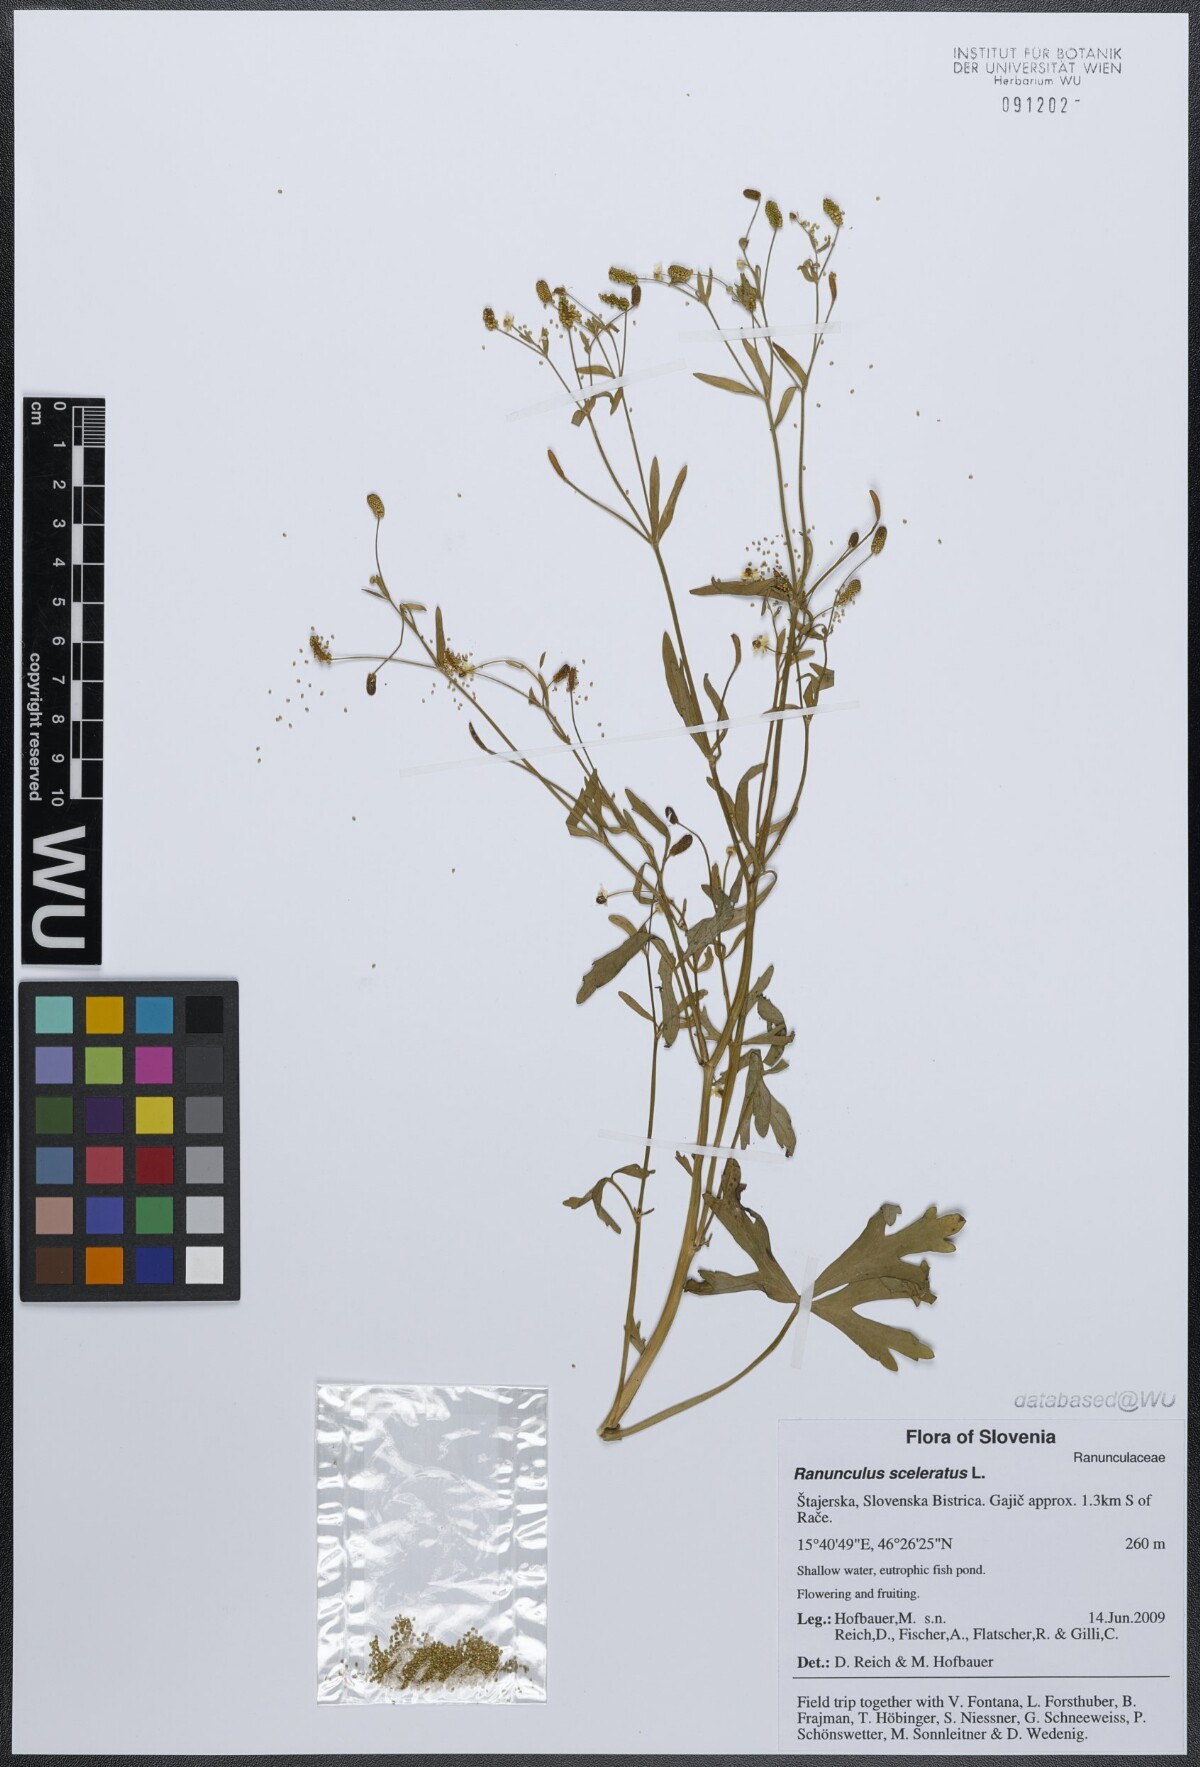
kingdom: Plantae
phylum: Tracheophyta
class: Magnoliopsida
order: Ranunculales
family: Ranunculaceae
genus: Ranunculus
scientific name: Ranunculus sceleratus
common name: Celery-leaved buttercup
